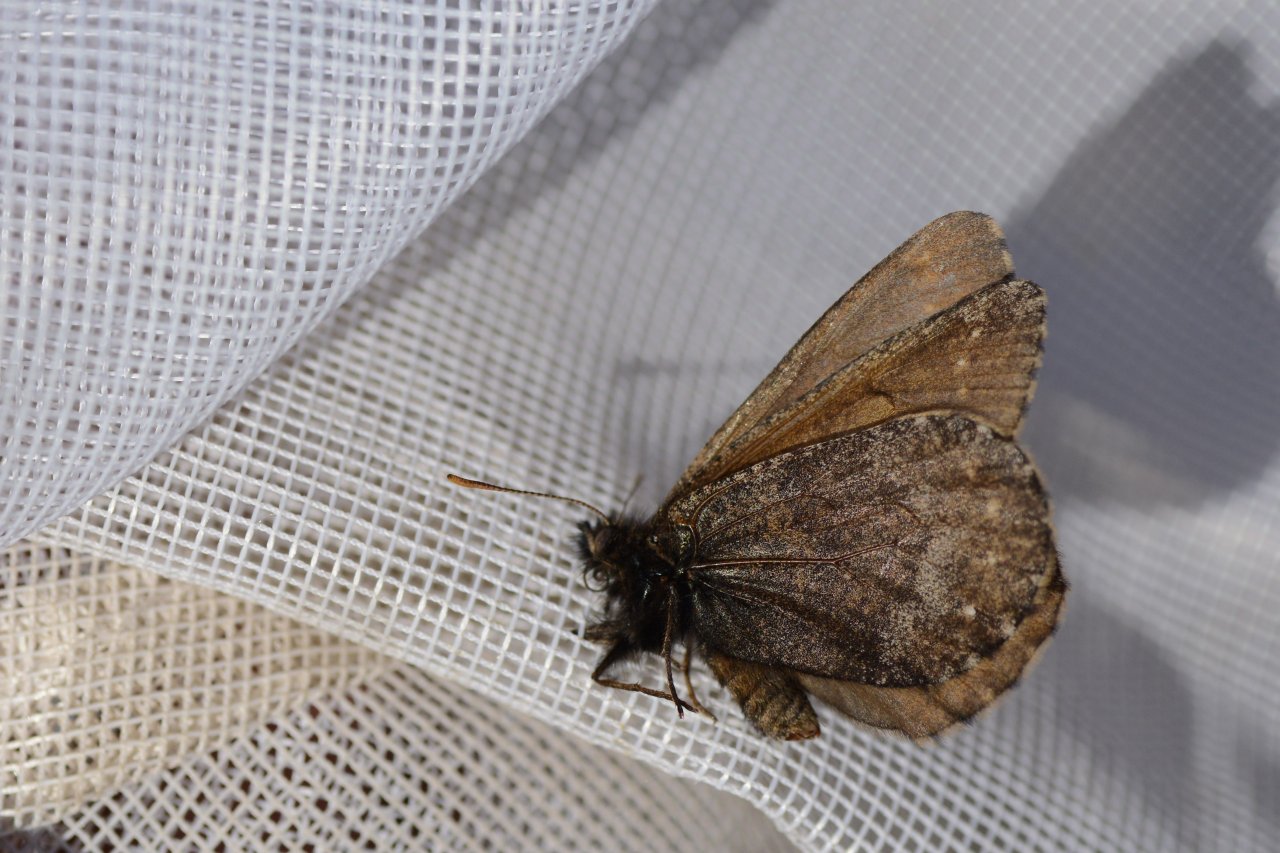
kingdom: Animalia
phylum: Arthropoda
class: Insecta
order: Lepidoptera
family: Nymphalidae
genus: Oeneis
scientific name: Oeneis bore
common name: White-veined Arctic
